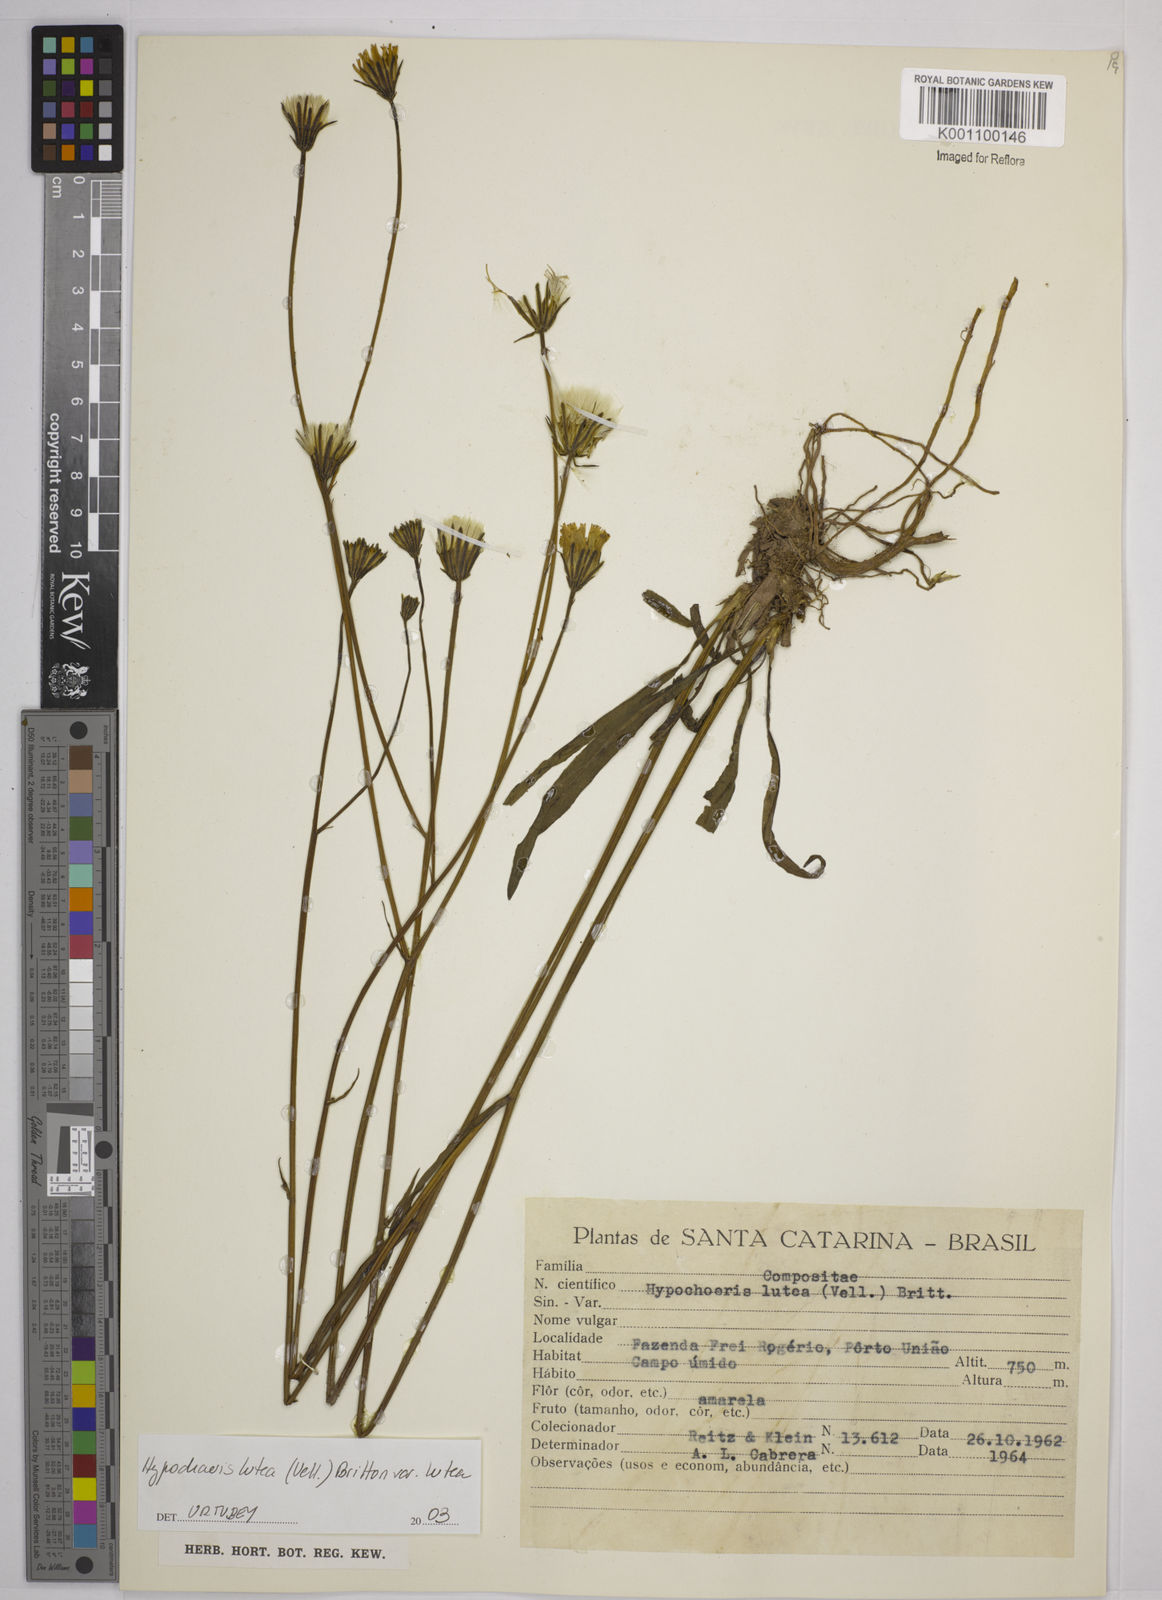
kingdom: Plantae
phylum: Tracheophyta
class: Magnoliopsida
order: Asterales
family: Asteraceae
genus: Hypochaeris
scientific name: Hypochaeris
